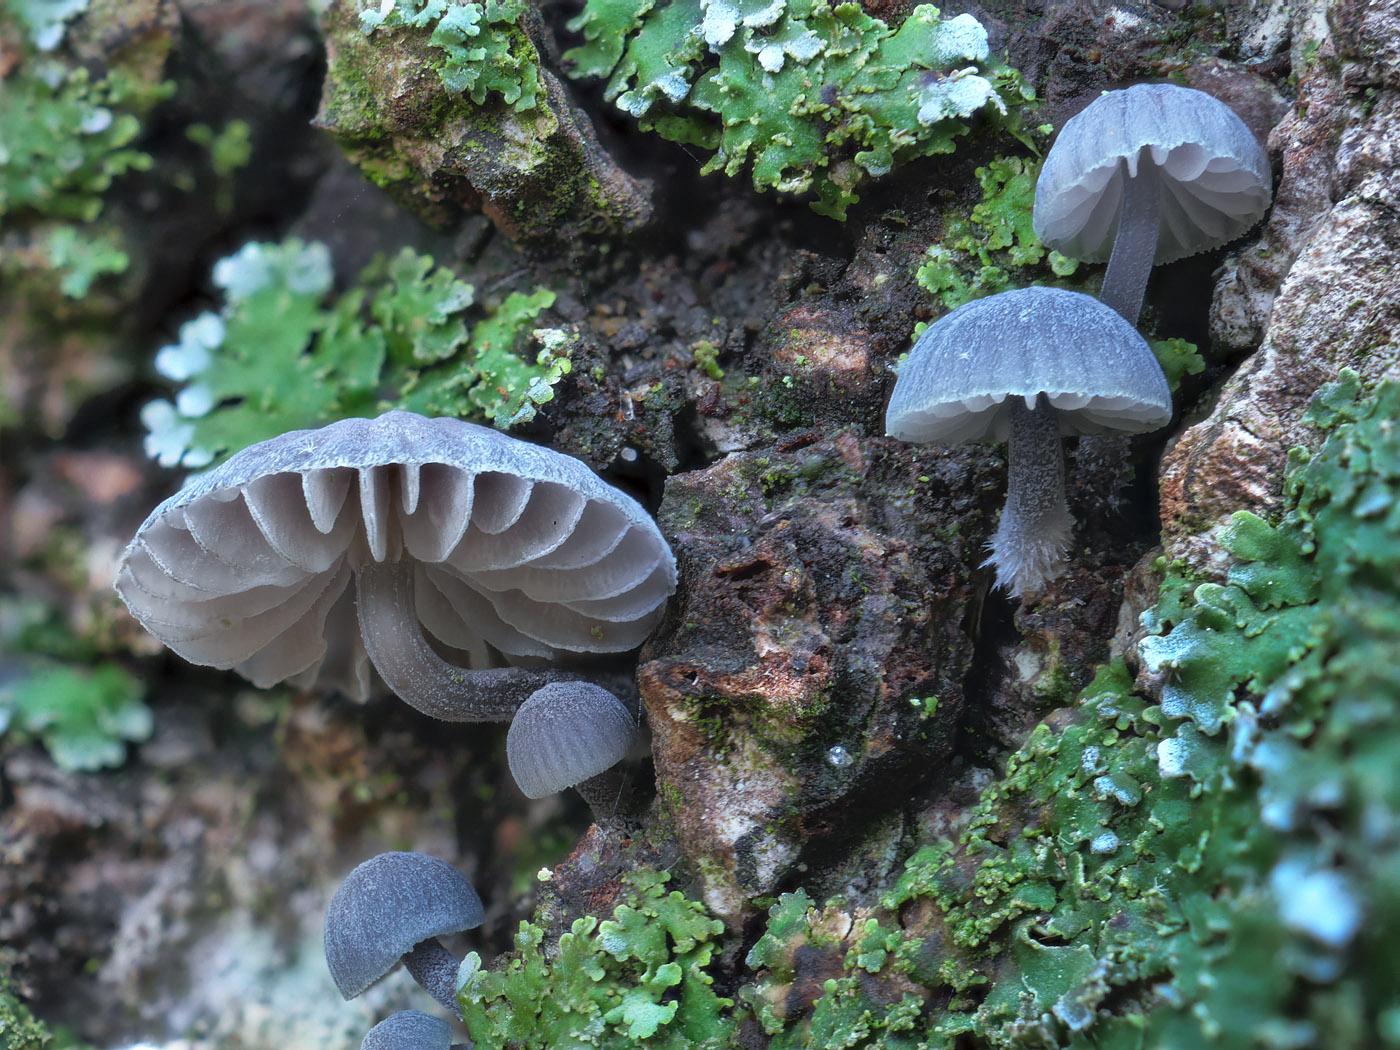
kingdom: Fungi
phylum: Basidiomycota
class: Agaricomycetes
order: Agaricales
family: Mycenaceae
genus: Mycena
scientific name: Mycena pseudocorticola
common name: gråblå bark-huesvamp
